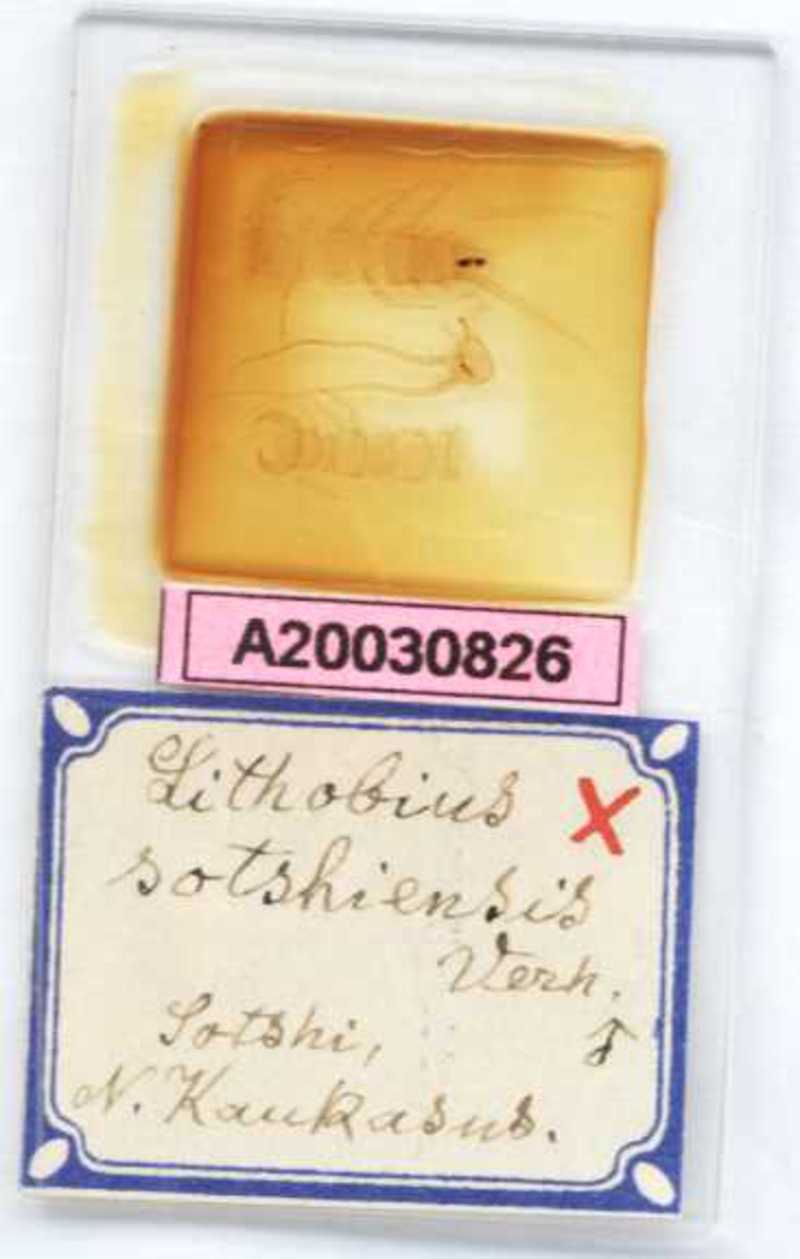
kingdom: Animalia
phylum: Arthropoda
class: Chilopoda
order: Lithobiomorpha
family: Lithobiidae
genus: Lithobius
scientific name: Lithobius sotshiensis
